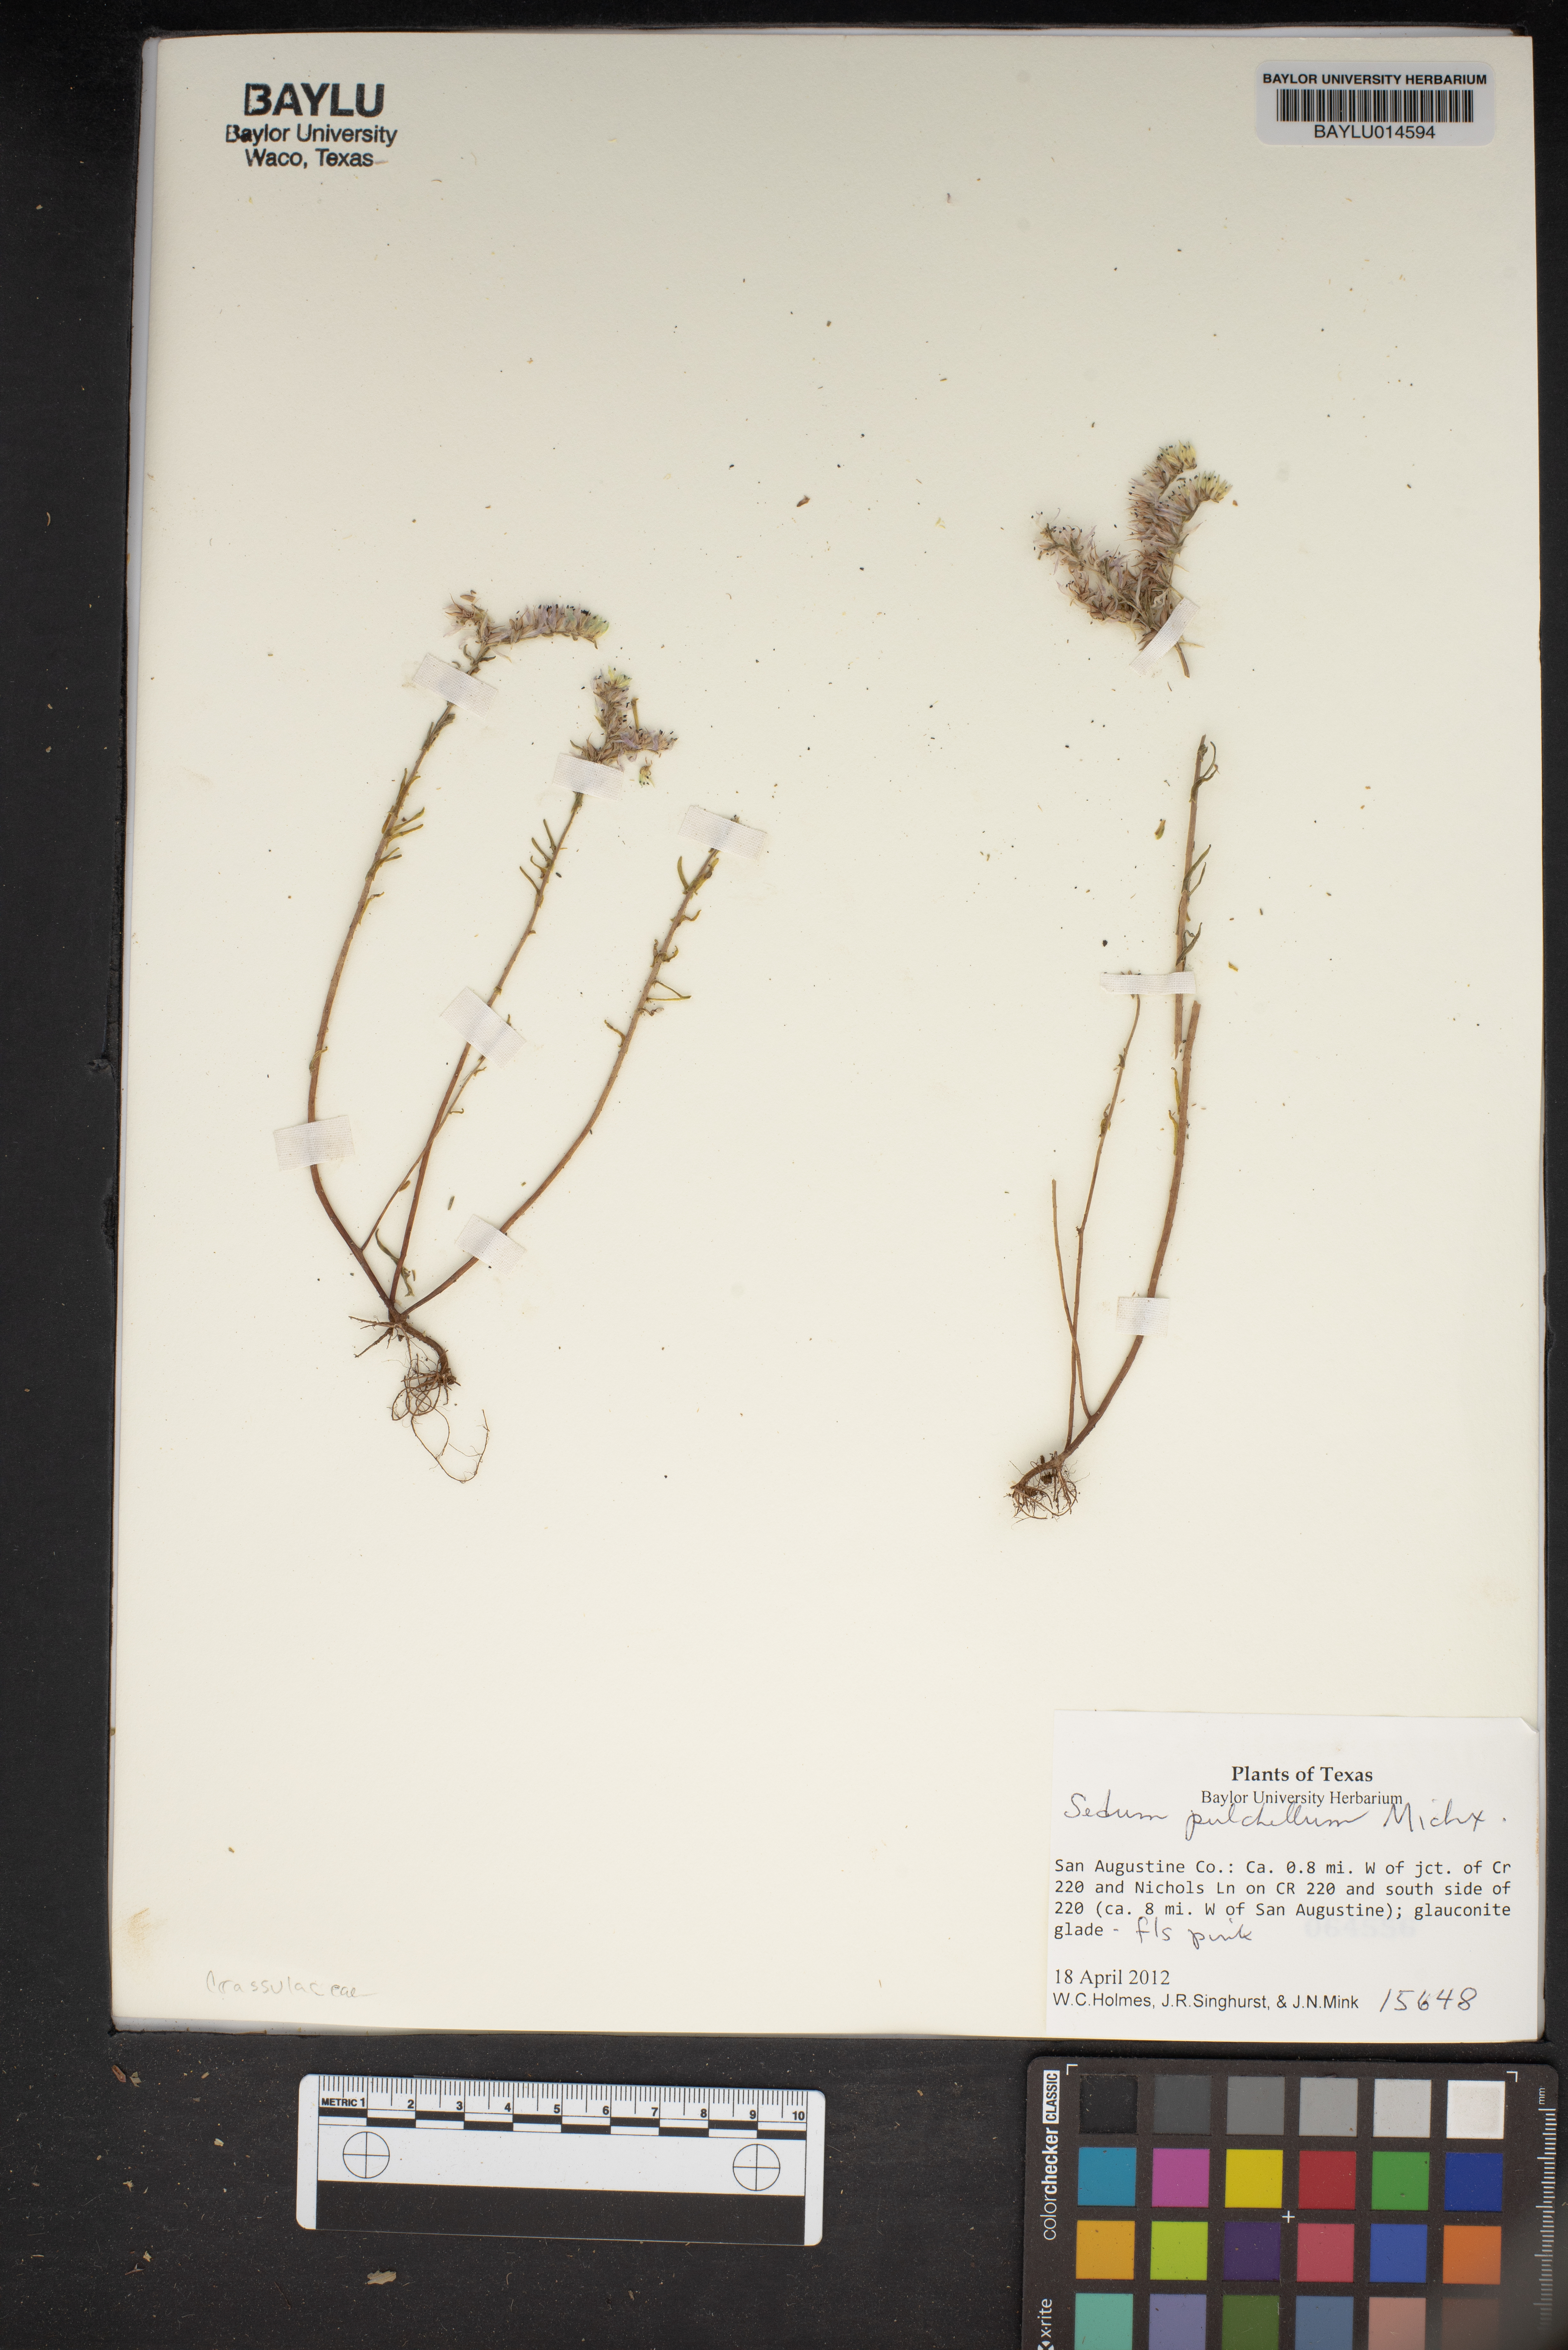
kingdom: Plantae
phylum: Tracheophyta
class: Magnoliopsida
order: Saxifragales
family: Crassulaceae
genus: Sedum
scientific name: Sedum pulchellum
